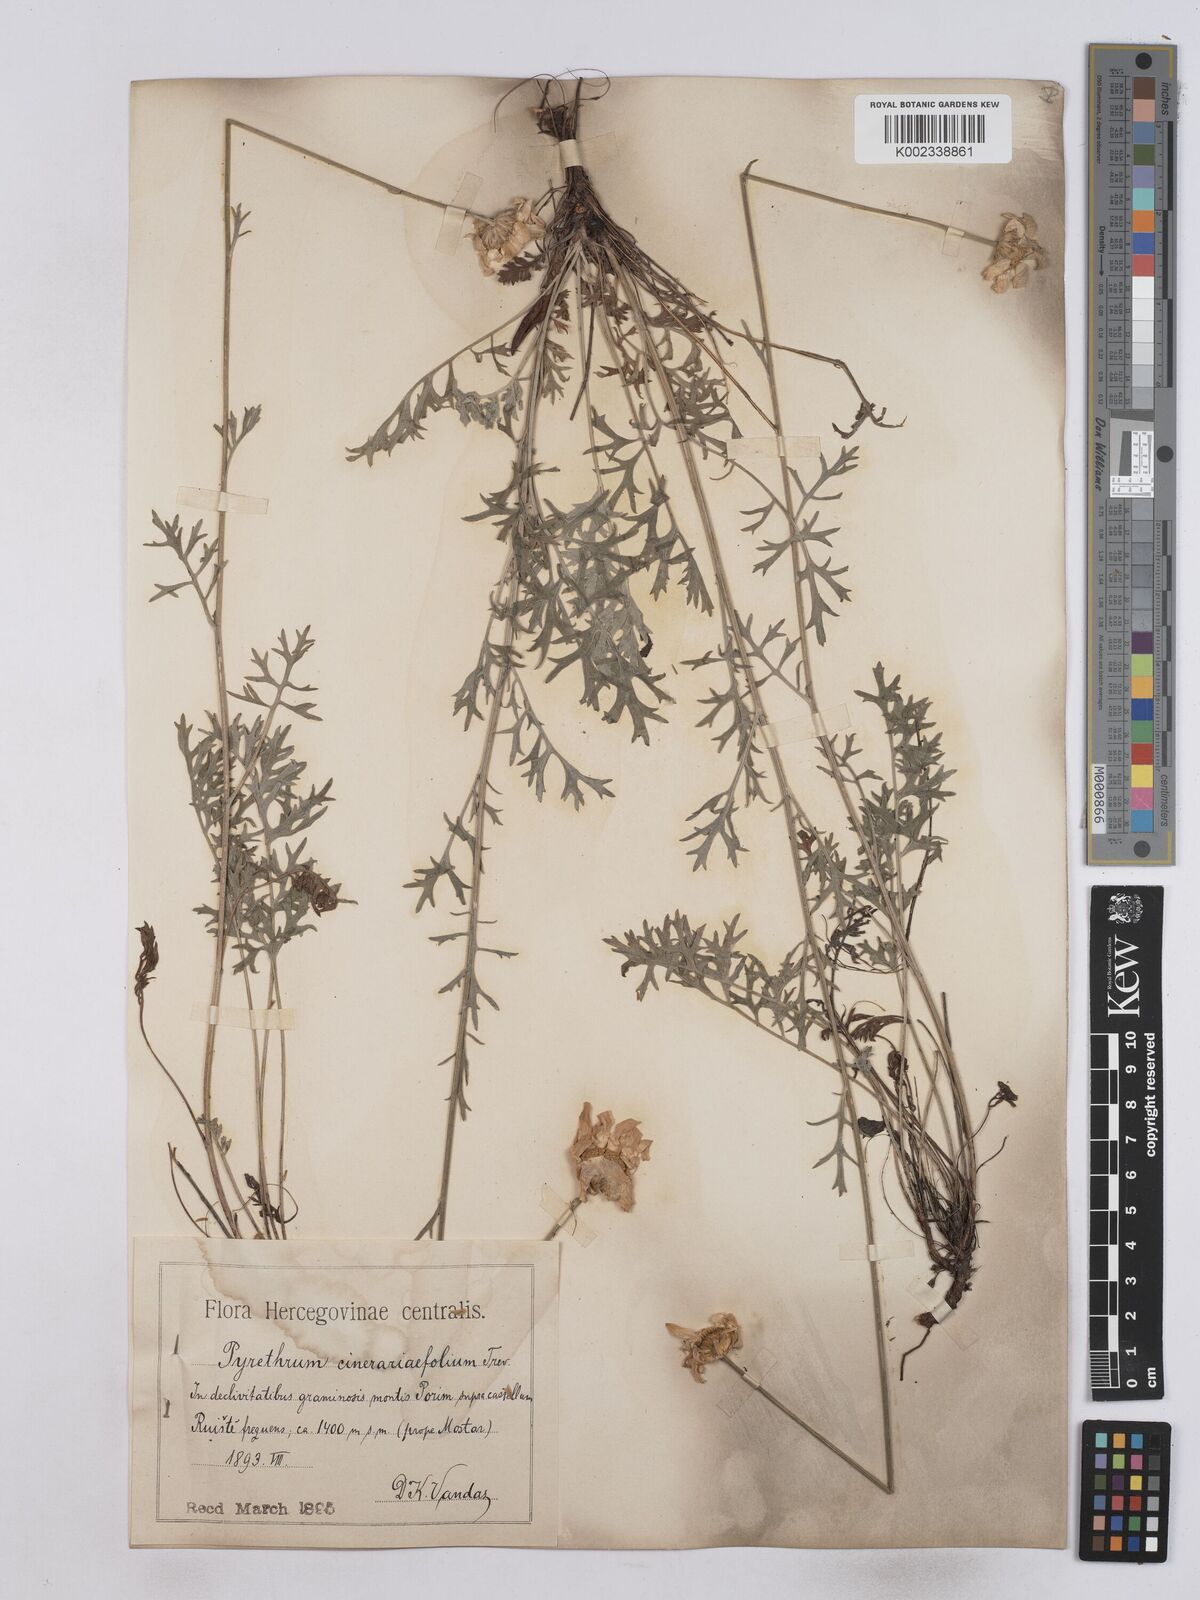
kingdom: Plantae
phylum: Tracheophyta
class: Magnoliopsida
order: Asterales
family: Asteraceae
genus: Tanacetum
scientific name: Tanacetum cinerariifolium
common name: Dalmatian pyrethrum
